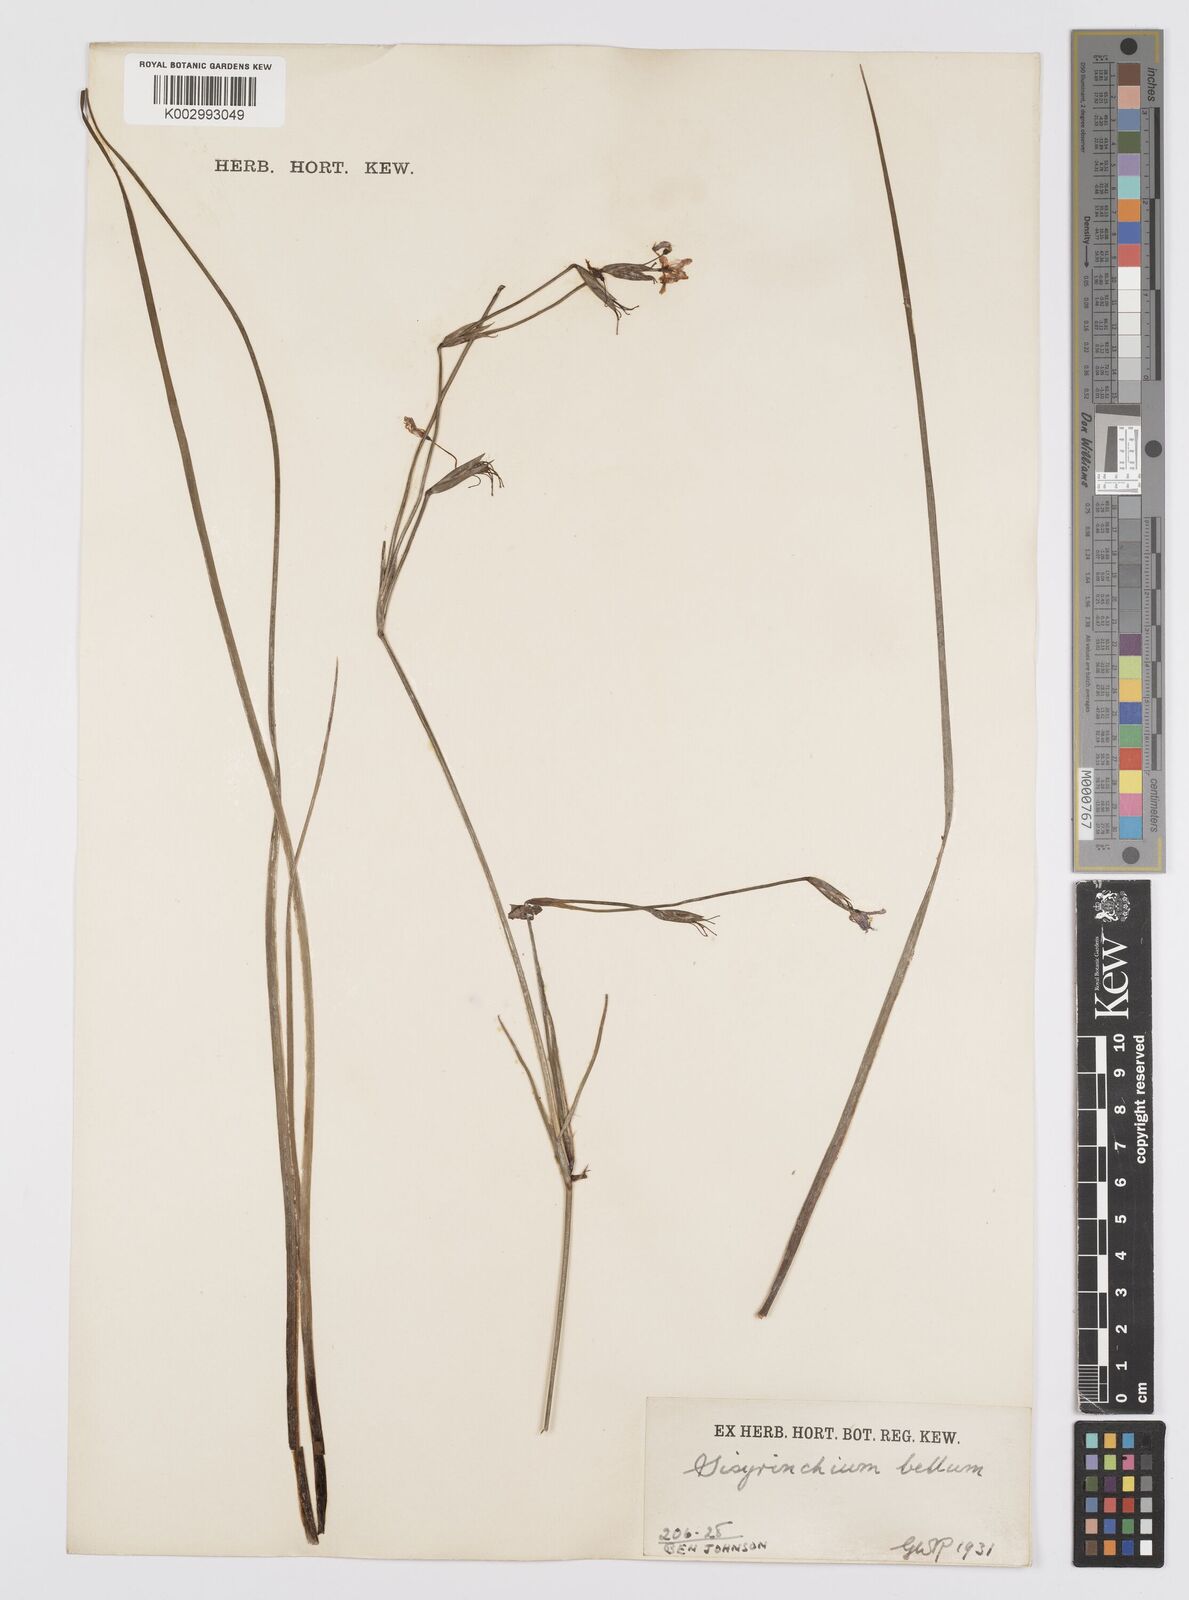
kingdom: Plantae
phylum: Tracheophyta
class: Liliopsida
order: Asparagales
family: Iridaceae
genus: Sisyrinchium
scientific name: Sisyrinchium bellum
